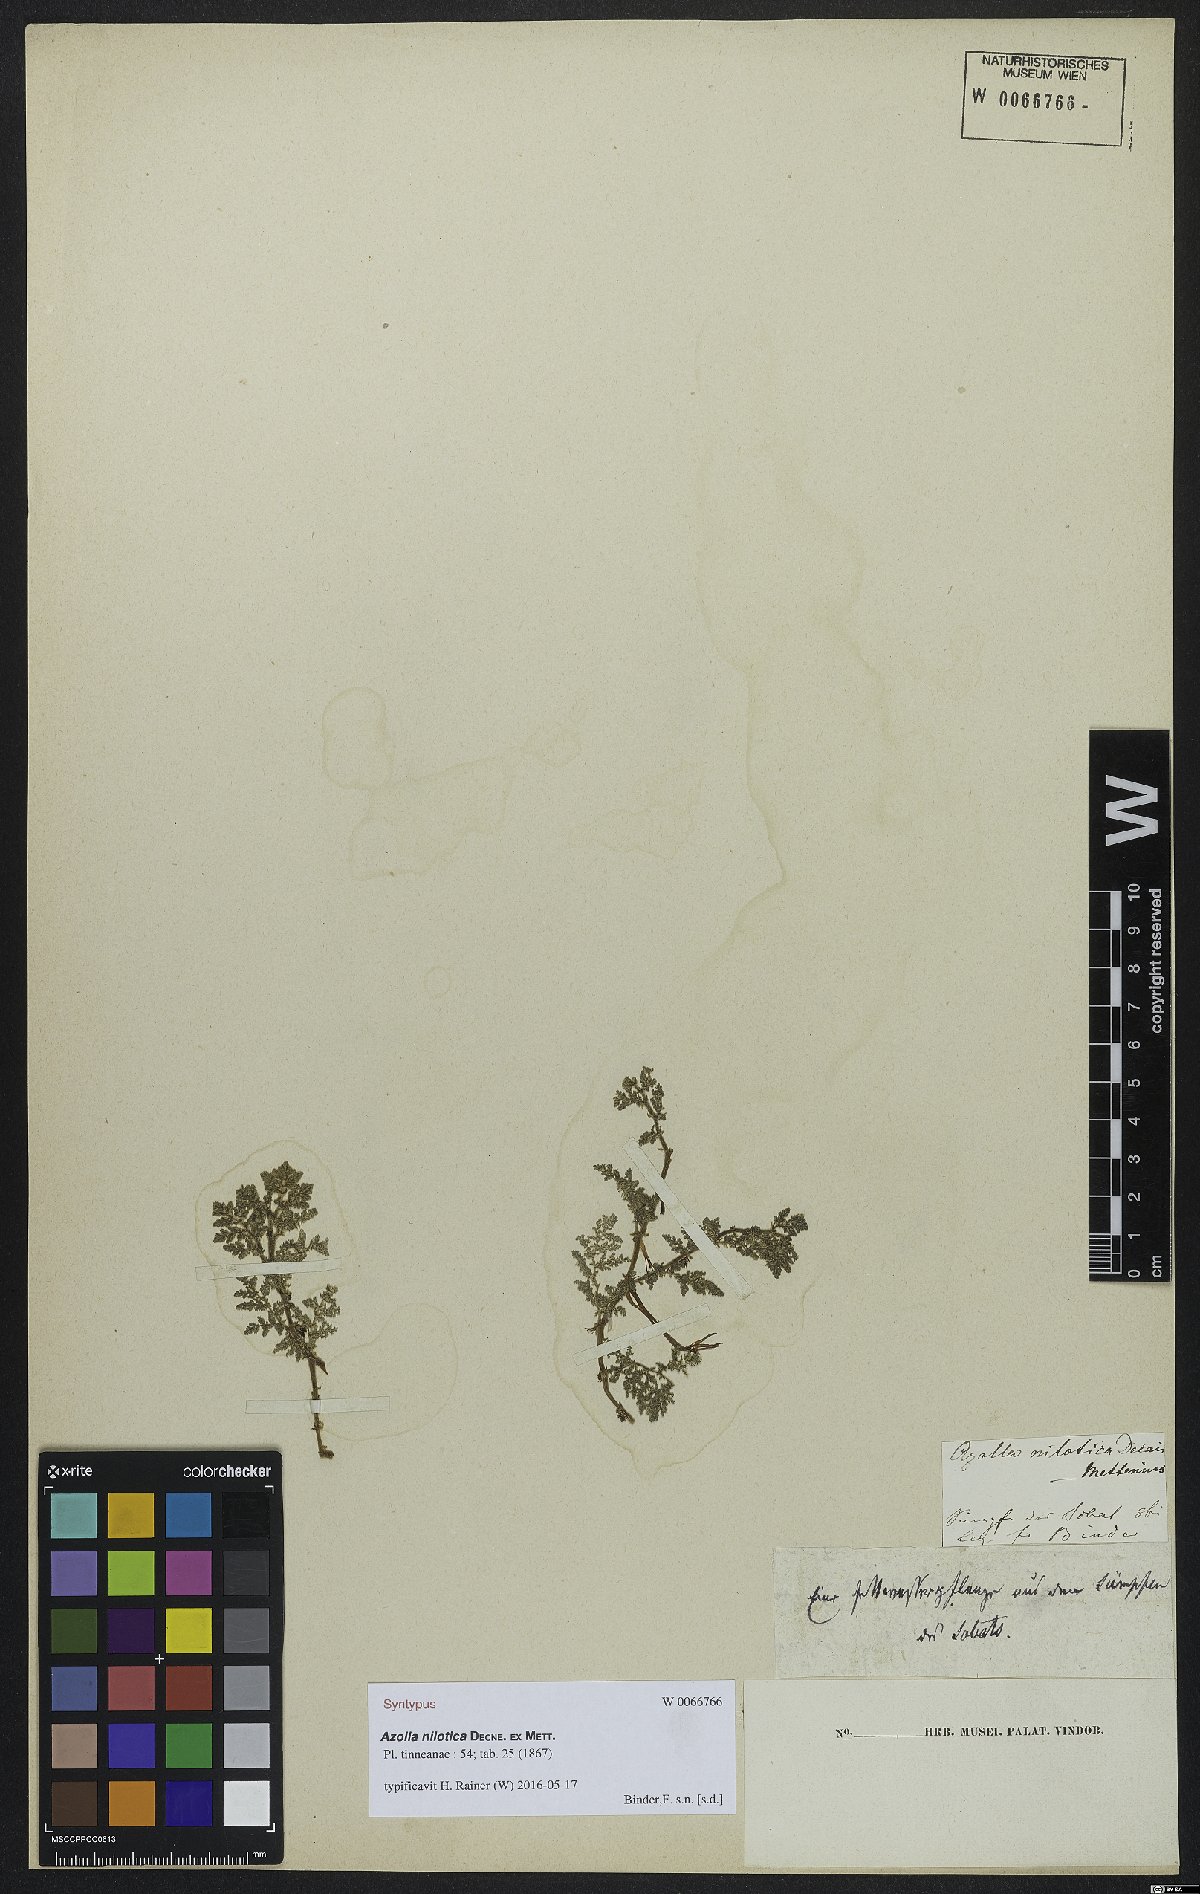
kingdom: Plantae
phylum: Tracheophyta
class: Polypodiopsida
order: Salviniales
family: Salviniaceae
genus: Azolla
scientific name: Azolla nilotica
